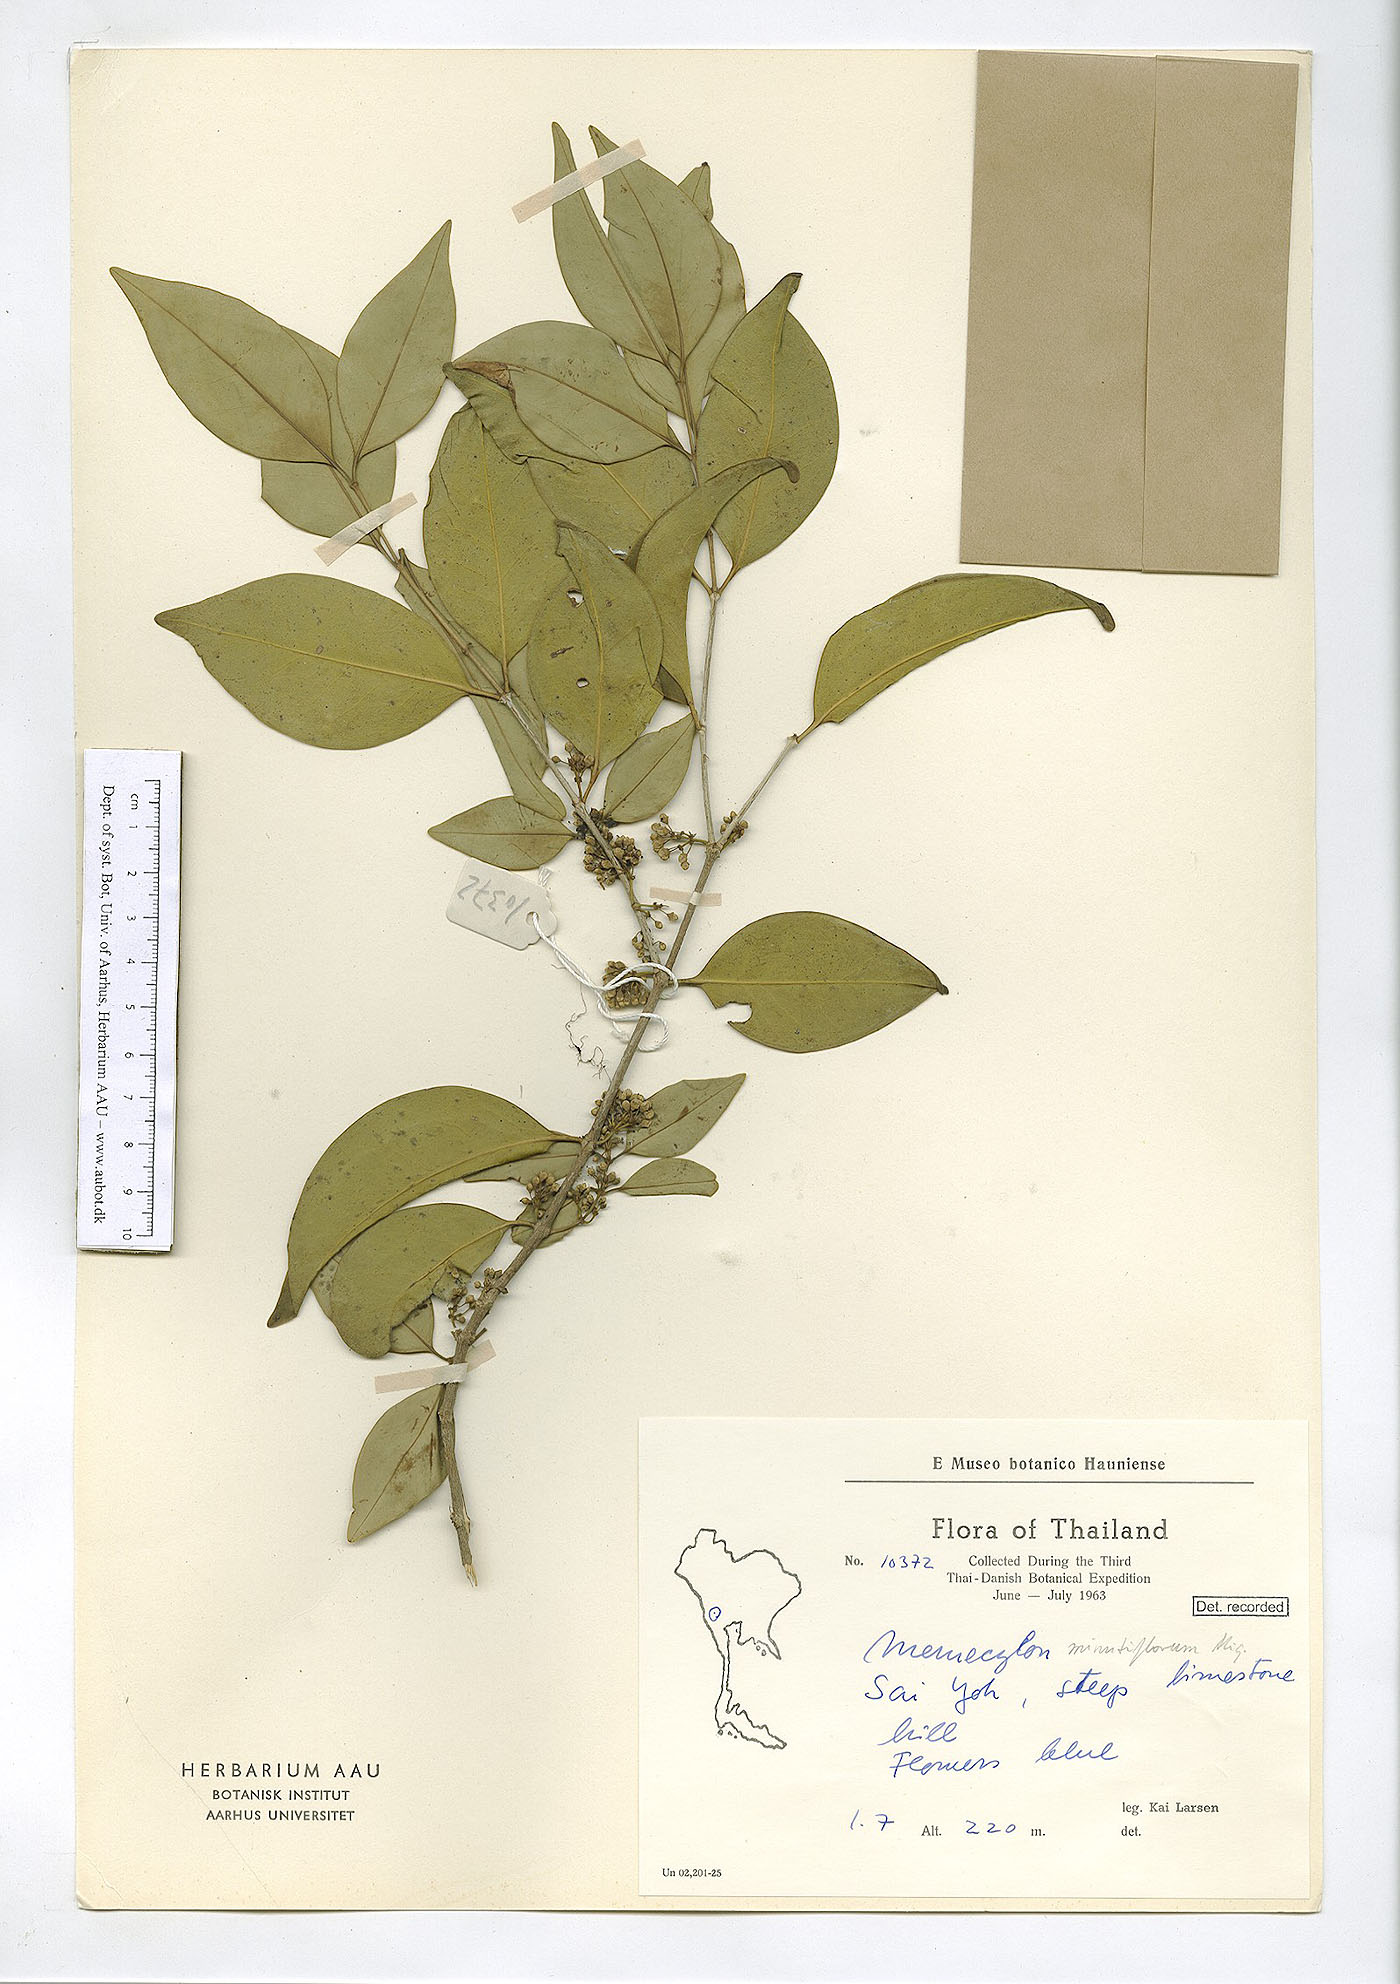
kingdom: Plantae
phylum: Tracheophyta
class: Magnoliopsida
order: Myrtales
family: Melastomataceae
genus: Memecylon
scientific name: Memecylon edule
